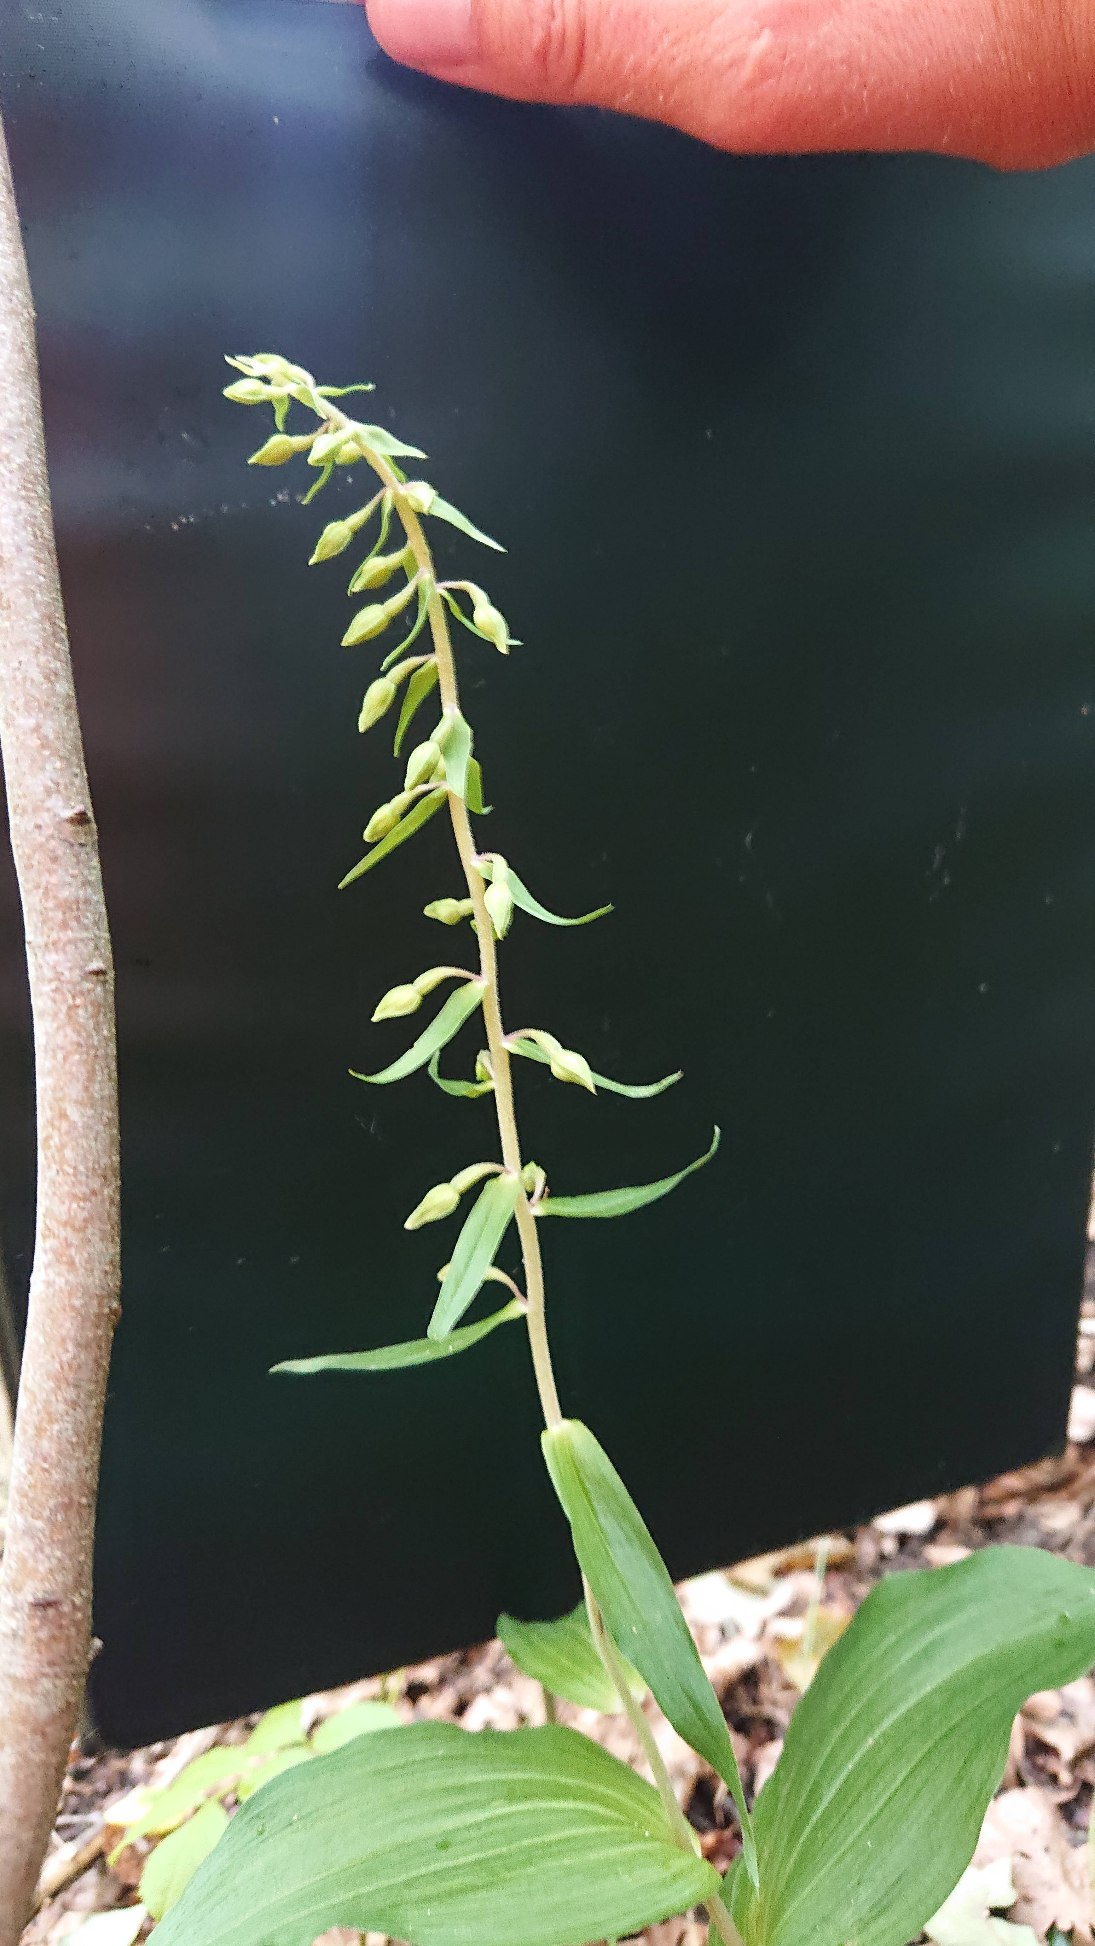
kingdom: Plantae
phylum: Tracheophyta
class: Liliopsida
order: Asparagales
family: Orchidaceae
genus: Epipactis
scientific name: Epipactis helleborine
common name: Skov-hullæbe
